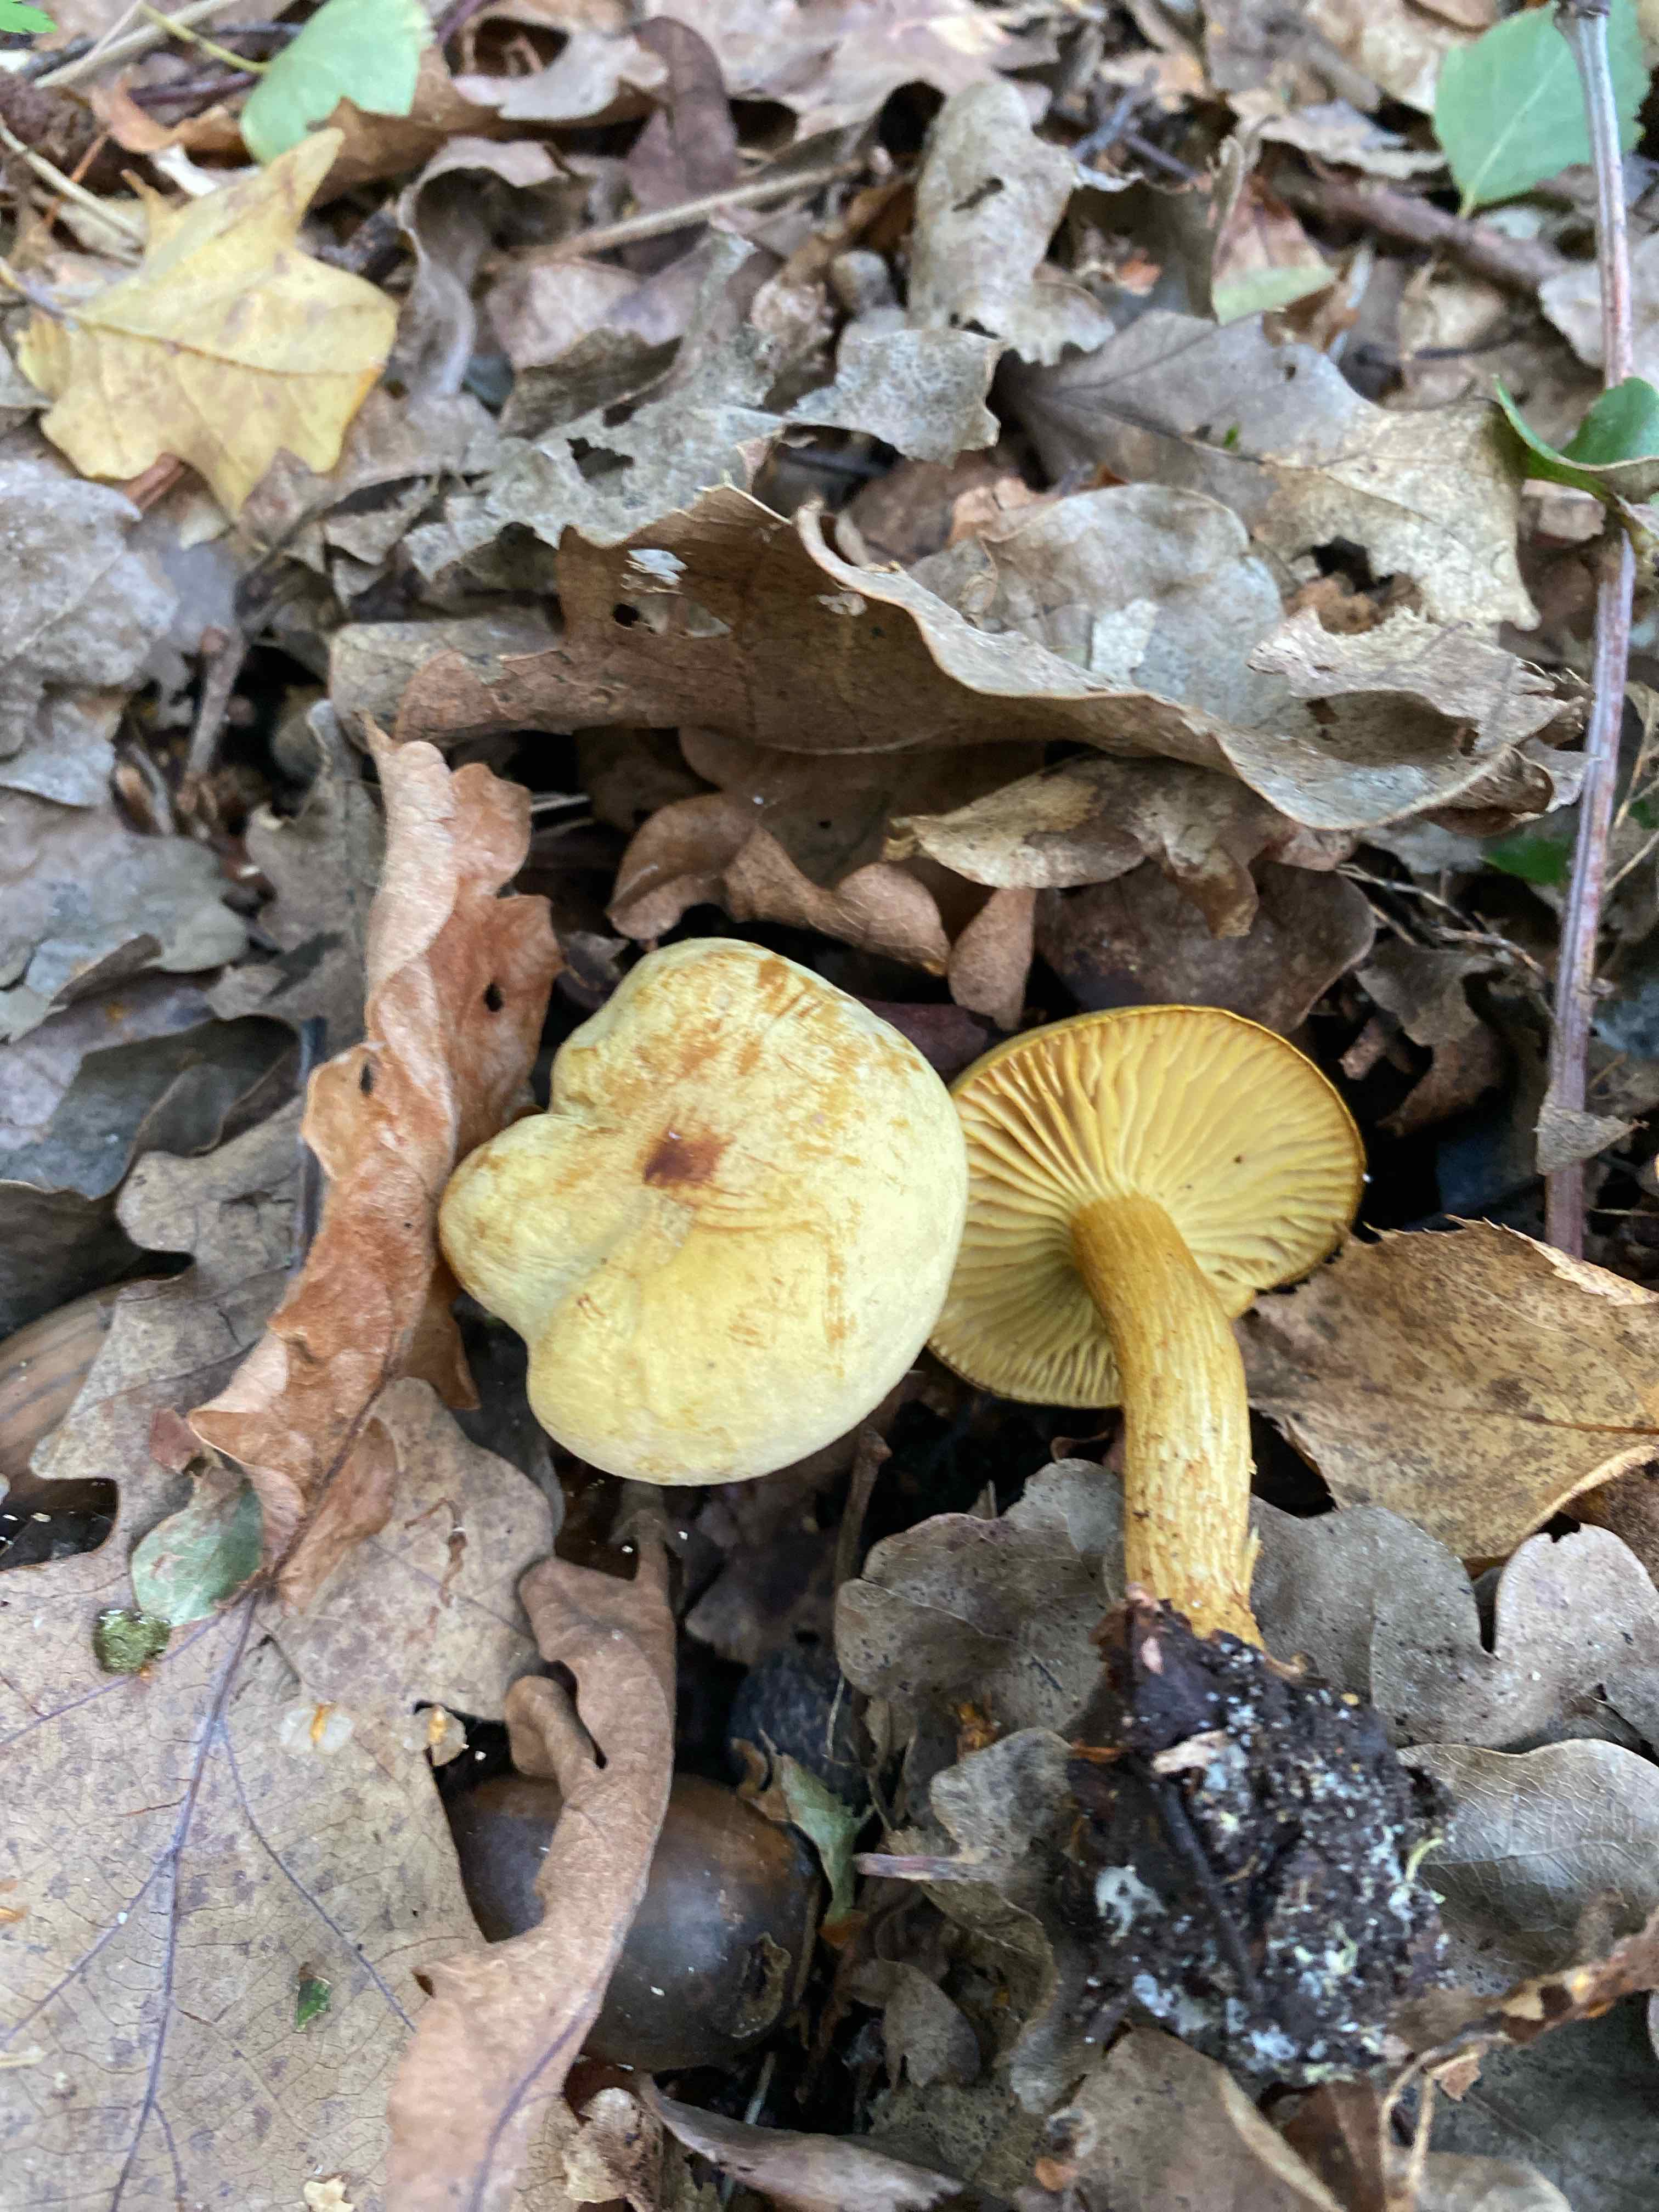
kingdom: Fungi
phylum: Basidiomycota
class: Agaricomycetes
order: Agaricales
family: Tricholomataceae
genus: Tricholoma
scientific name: Tricholoma sulphureum
